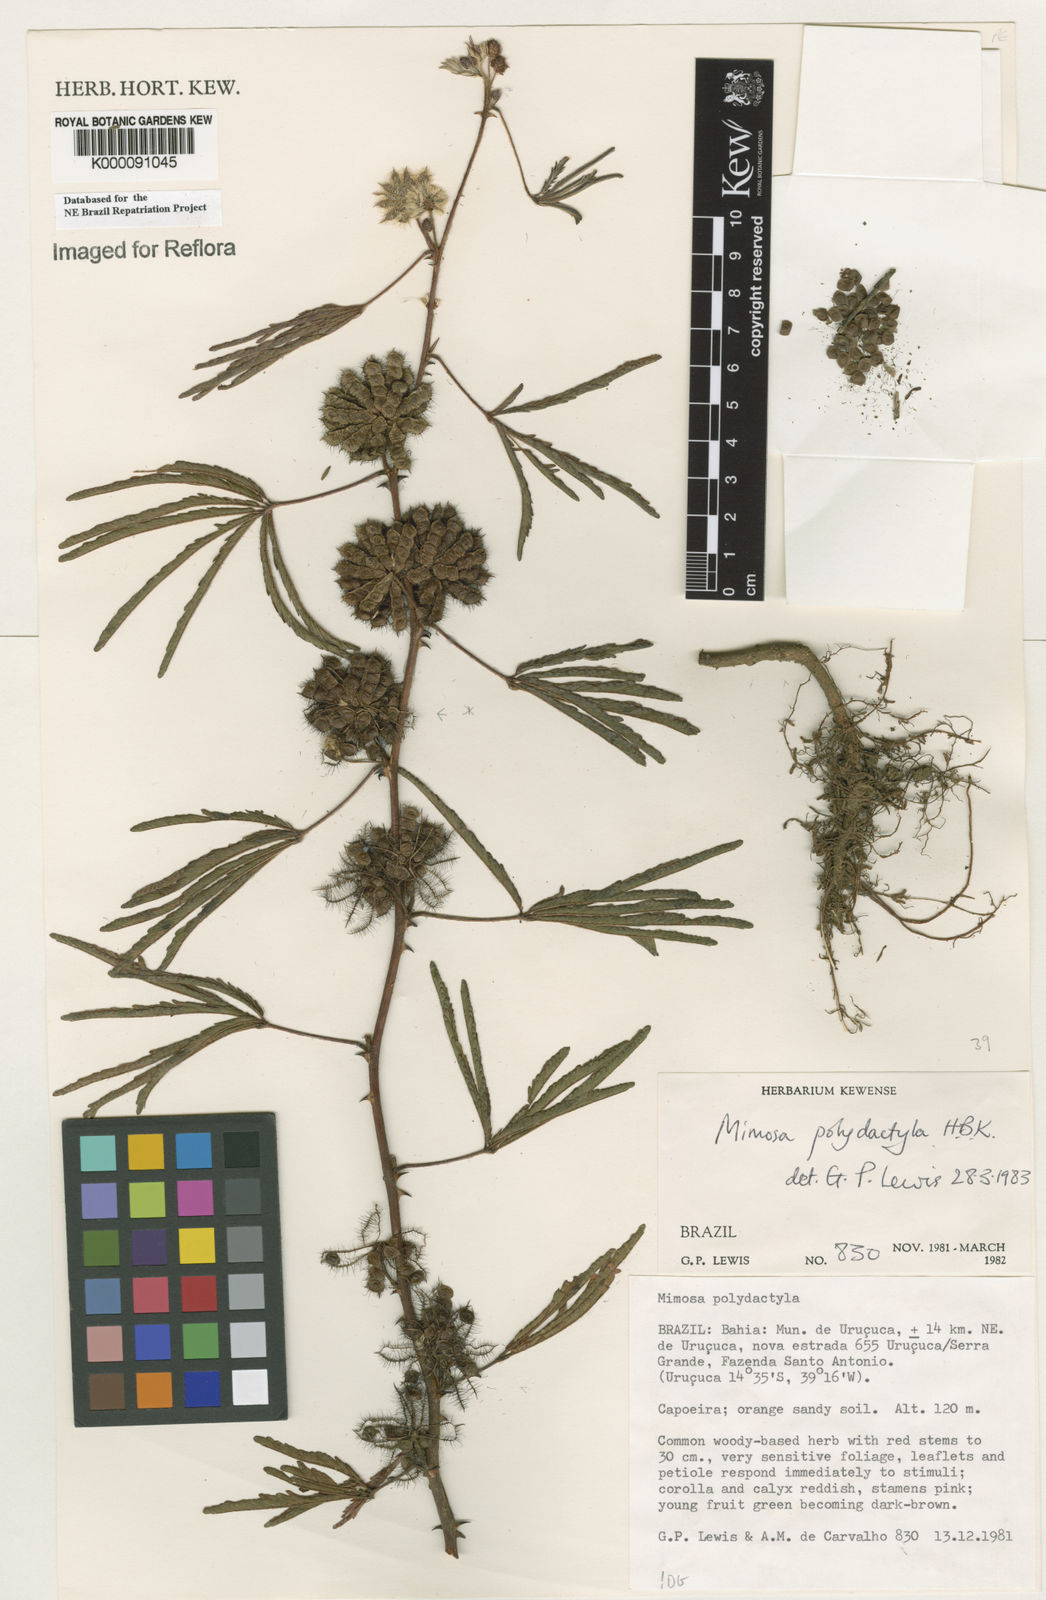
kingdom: Plantae
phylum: Tracheophyta
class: Magnoliopsida
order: Fabales
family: Fabaceae
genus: Mimosa
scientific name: Mimosa
